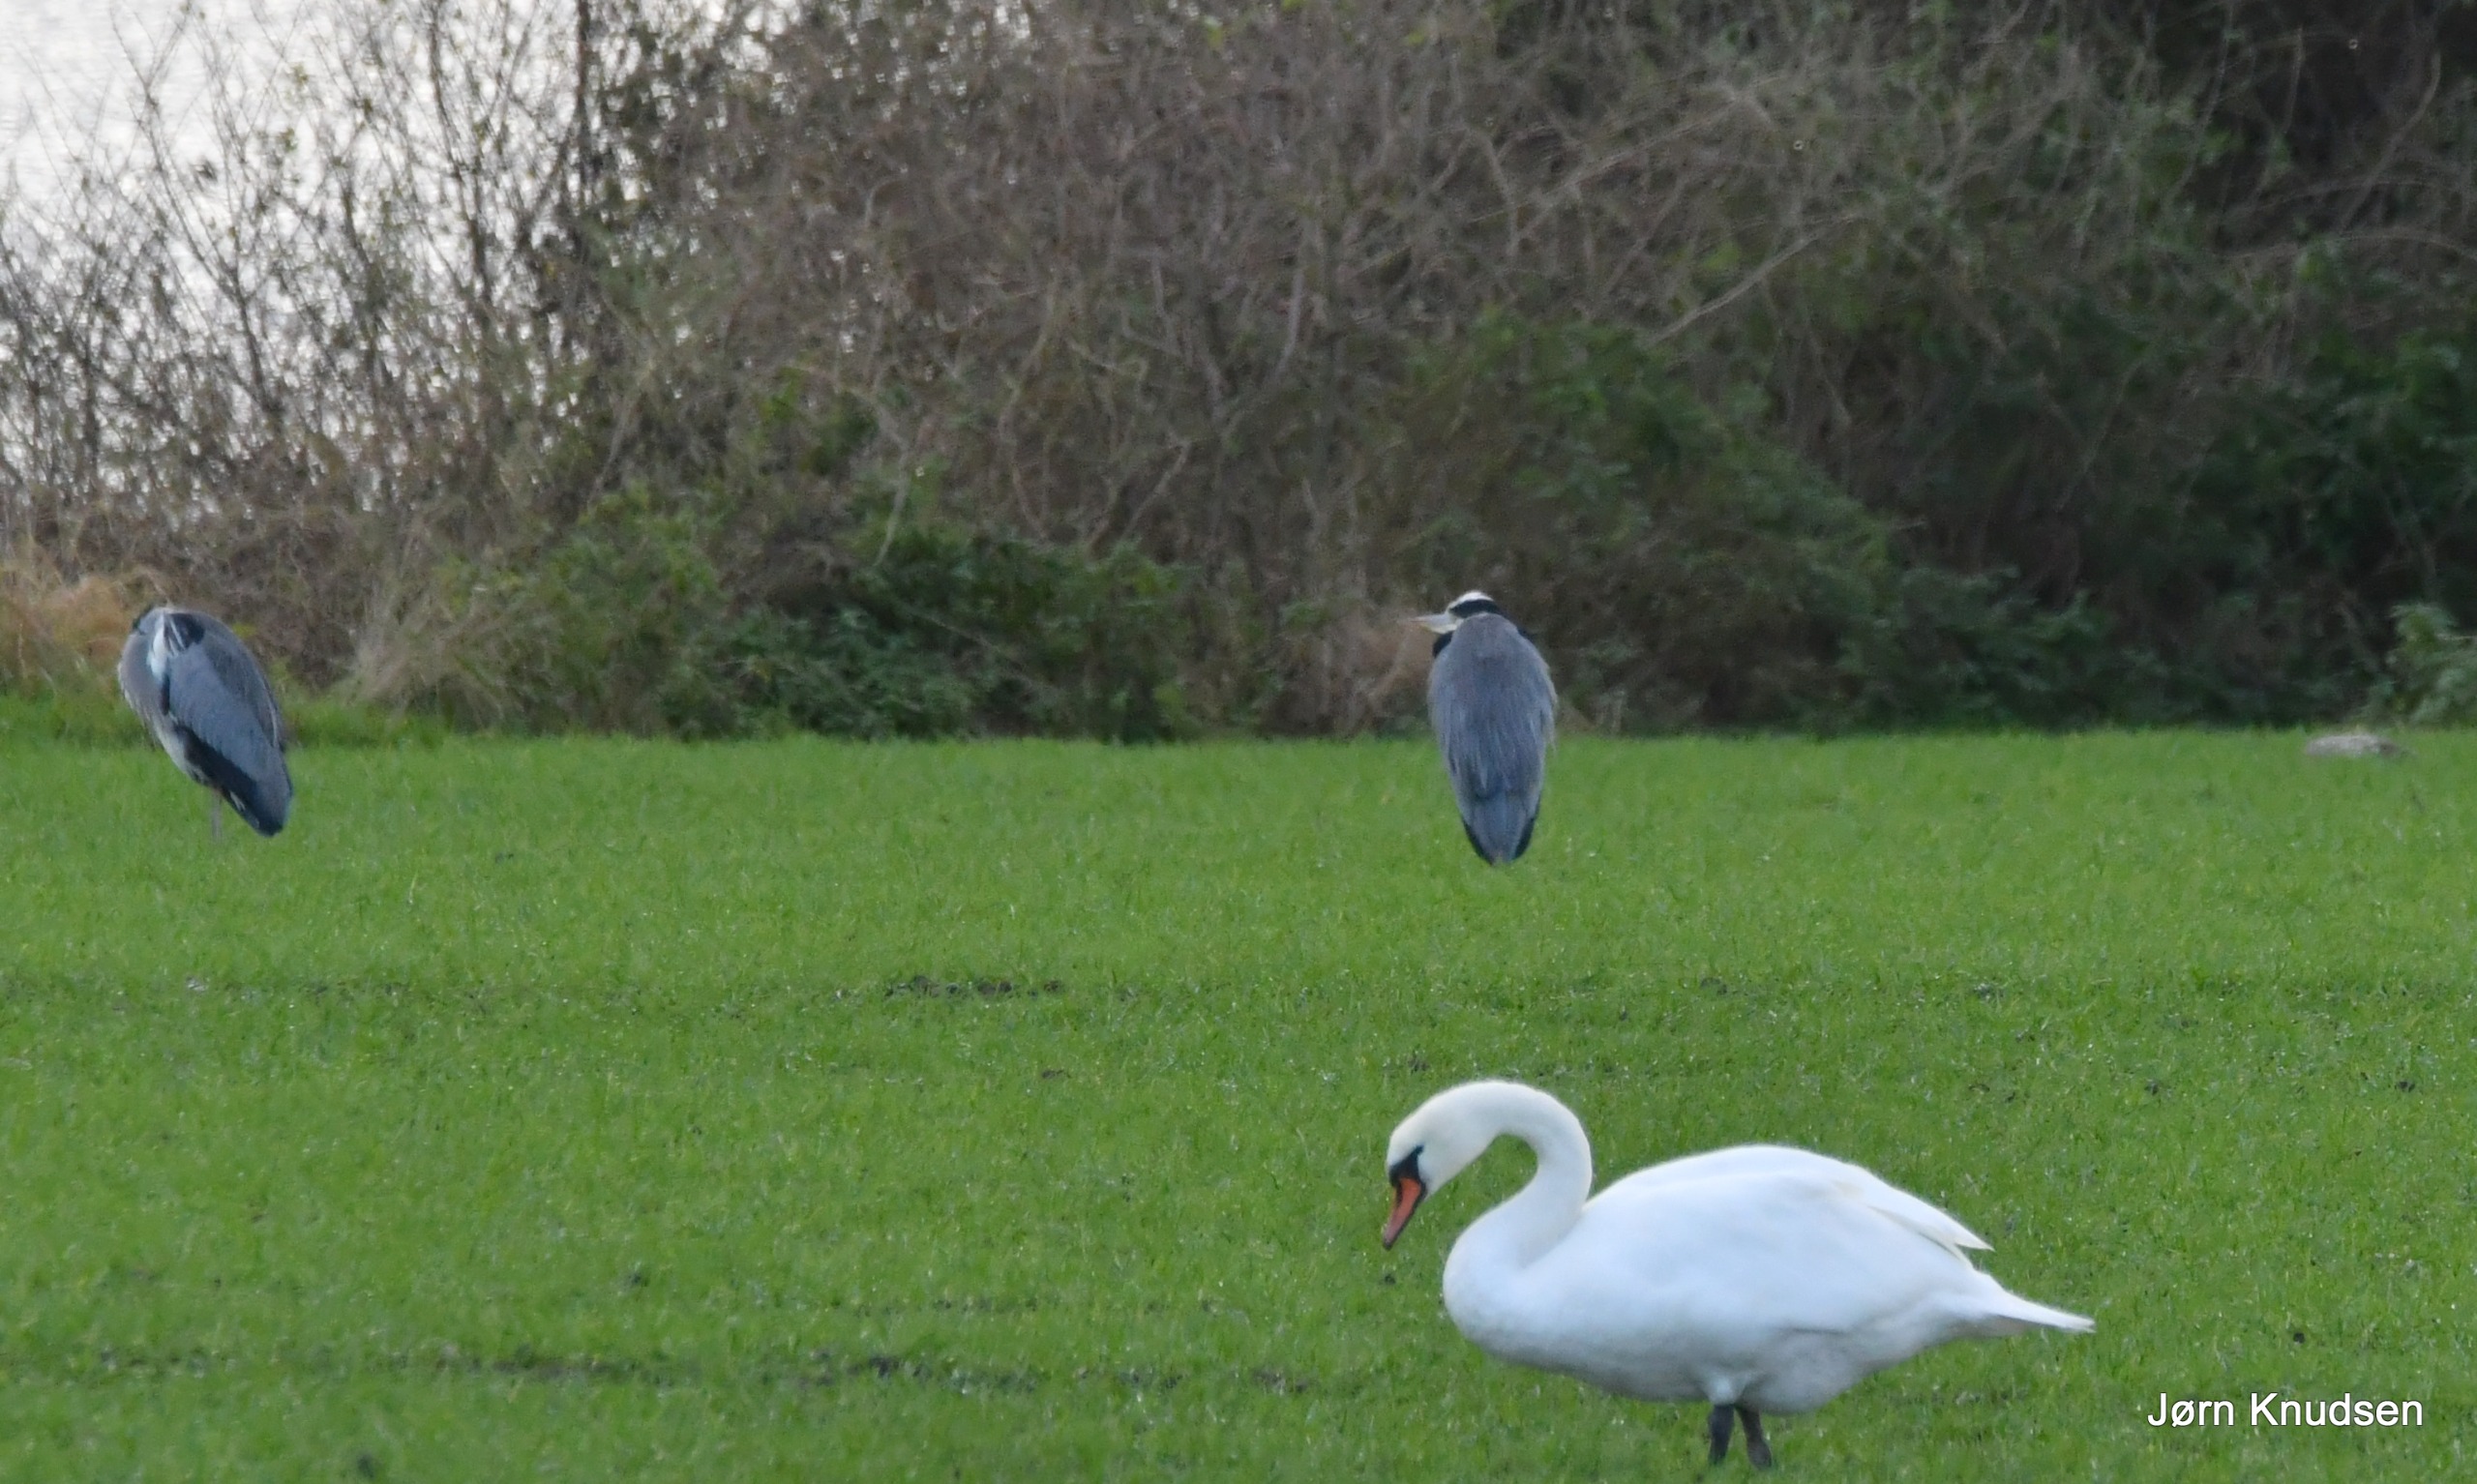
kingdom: Animalia
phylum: Chordata
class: Aves
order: Pelecaniformes
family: Ardeidae
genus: Ardea
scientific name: Ardea cinerea
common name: Fiskehejre
